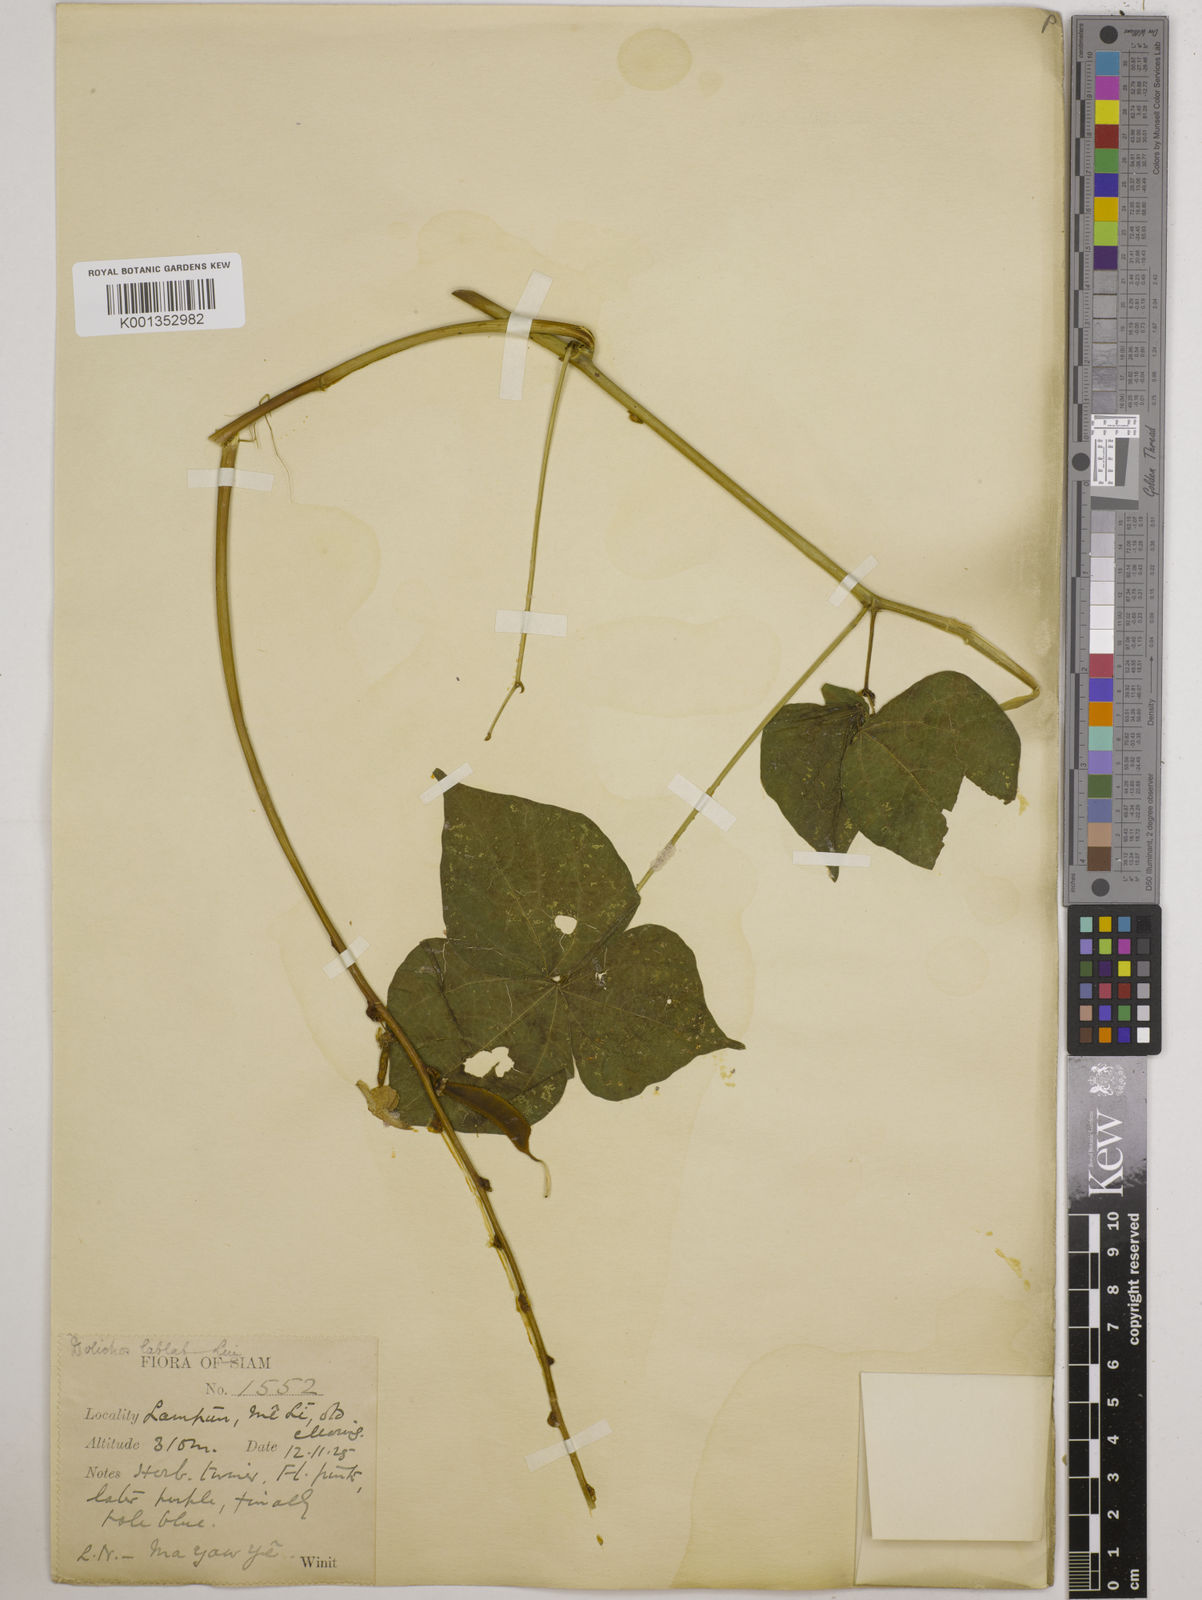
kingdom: Plantae
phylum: Tracheophyta
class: Magnoliopsida
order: Fabales
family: Fabaceae
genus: Lablab
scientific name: Lablab purpureus
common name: Lablab-bean
